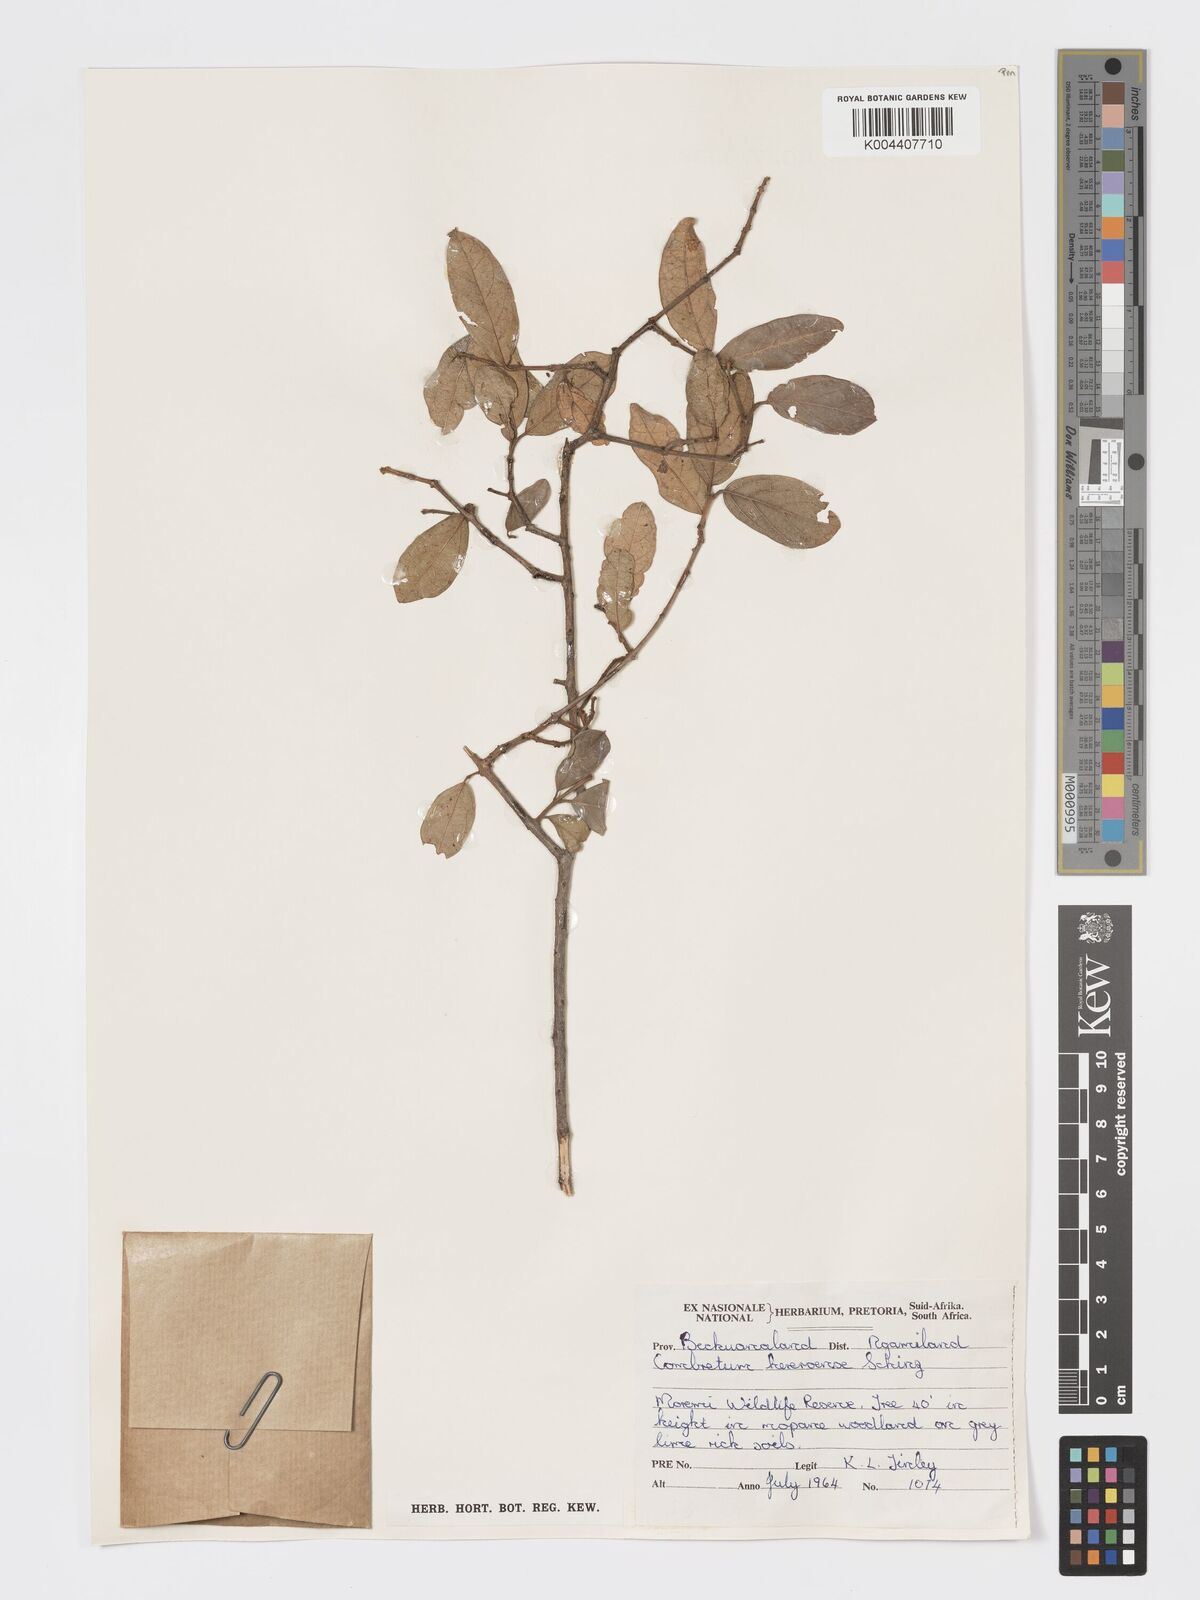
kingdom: Plantae
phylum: Tracheophyta
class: Magnoliopsida
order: Myrtales
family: Combretaceae
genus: Combretum
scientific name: Combretum hereroense
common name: Russet bushwillow
